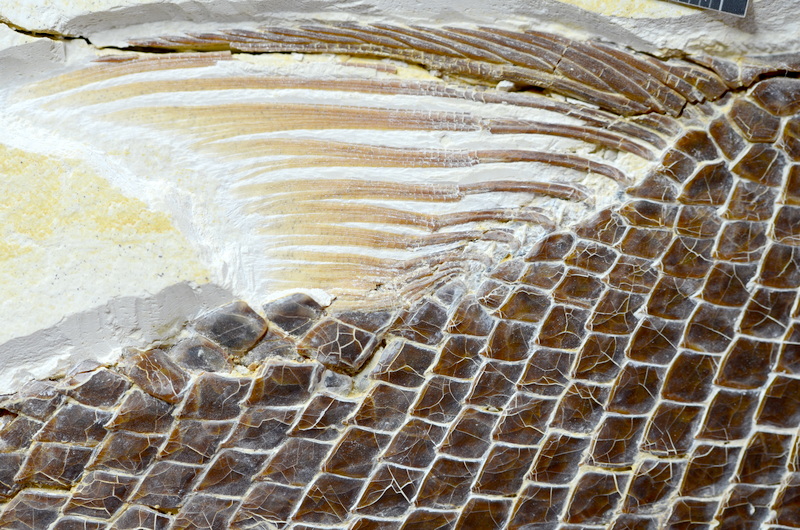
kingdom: Animalia
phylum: Chordata
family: Callipurbeckiidae
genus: Macrosemimimus
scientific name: Macrosemimimus fegerti
